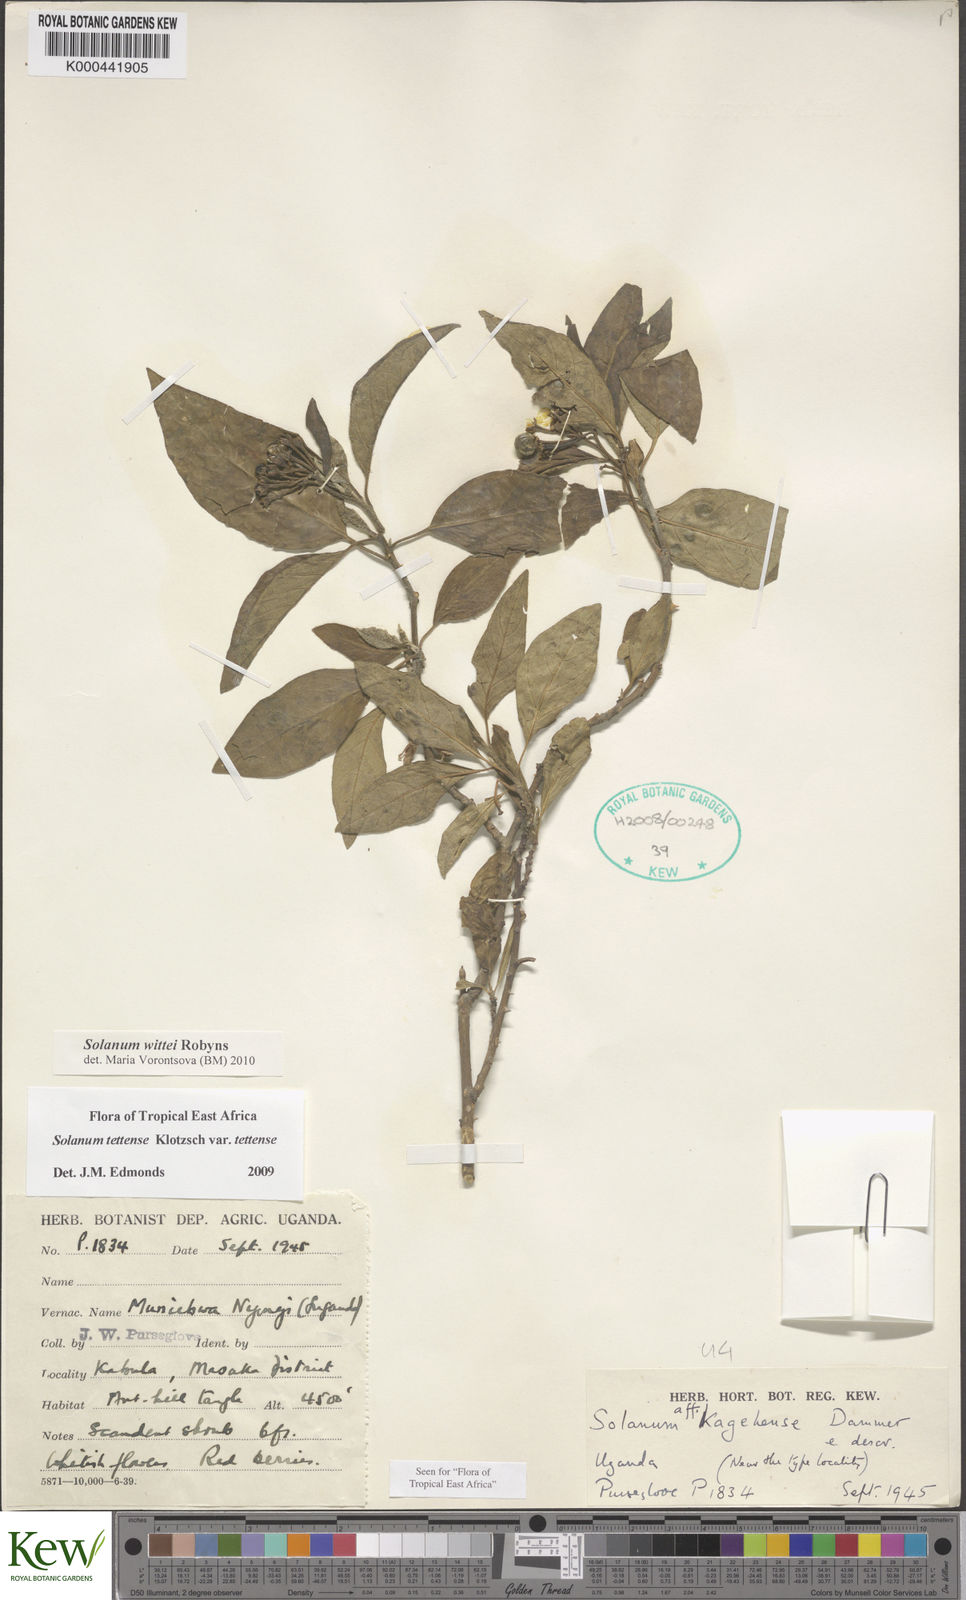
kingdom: Plantae
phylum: Tracheophyta
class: Magnoliopsida
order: Solanales
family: Solanaceae
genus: Solanum
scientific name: Solanum wittei
